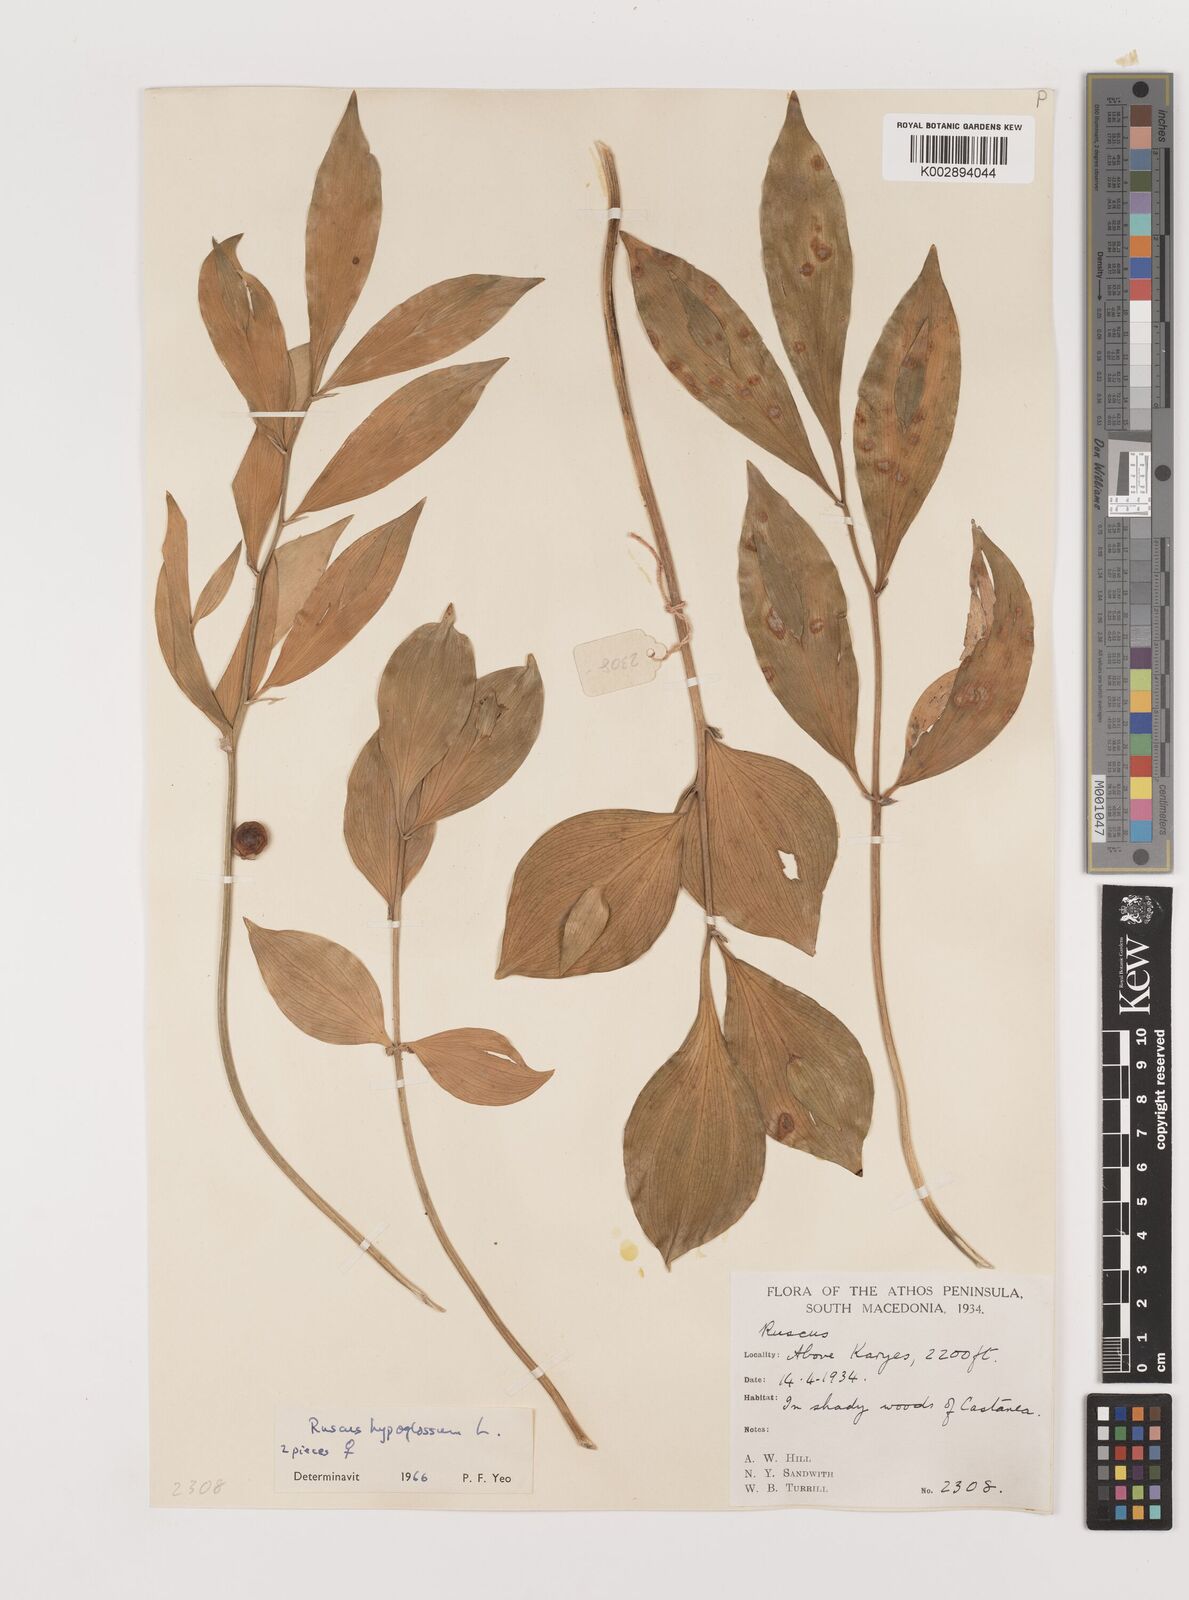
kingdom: Plantae
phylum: Tracheophyta
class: Liliopsida
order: Asparagales
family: Asparagaceae
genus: Ruscus
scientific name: Ruscus hypoglossum
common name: Spineless butcher's-broom
